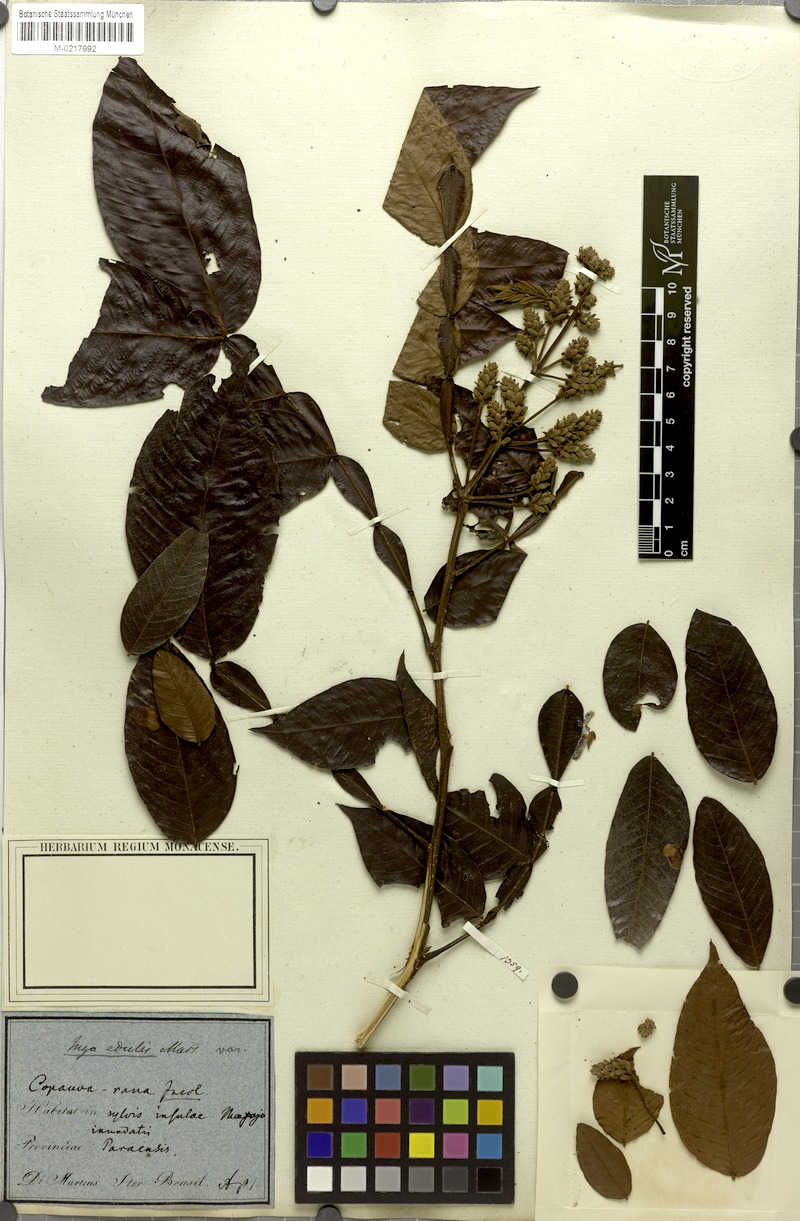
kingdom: Plantae
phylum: Tracheophyta
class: Magnoliopsida
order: Fabales
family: Fabaceae
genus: Inga
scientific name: Inga edulis
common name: Ice cream bean
